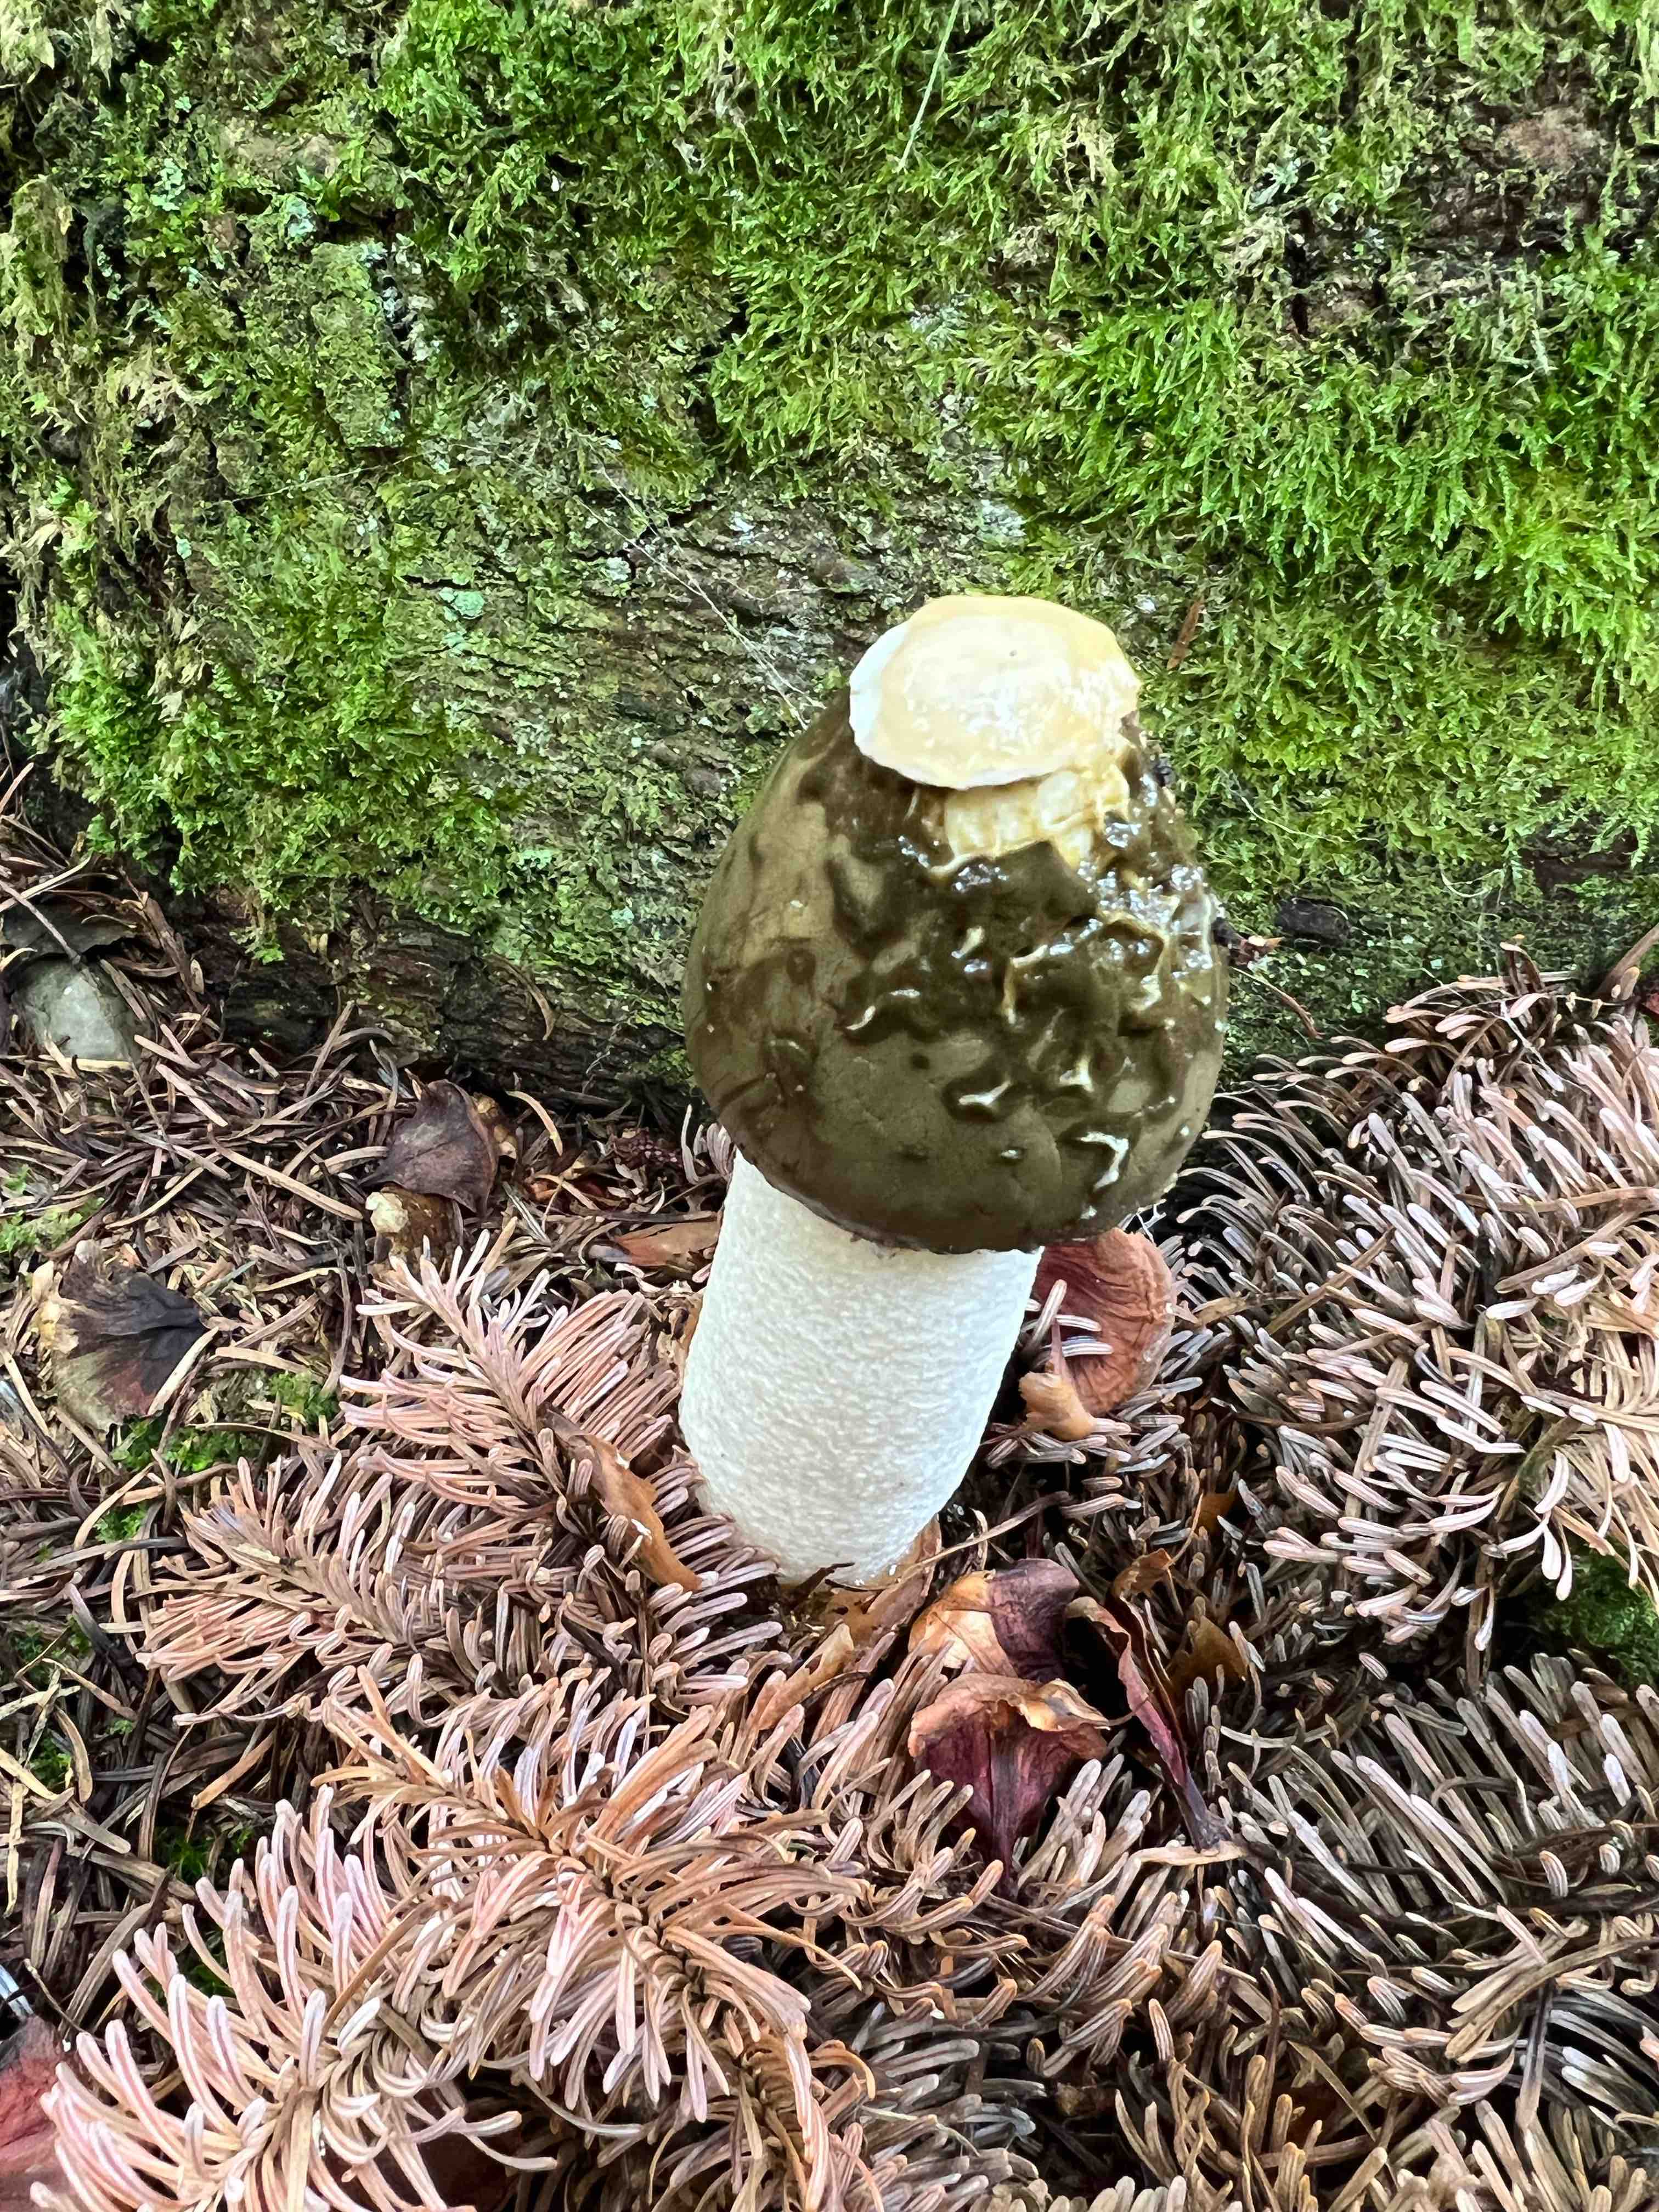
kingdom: Fungi
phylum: Basidiomycota
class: Agaricomycetes
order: Phallales
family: Phallaceae
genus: Phallus
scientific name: Phallus impudicus
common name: almindelig stinksvamp
